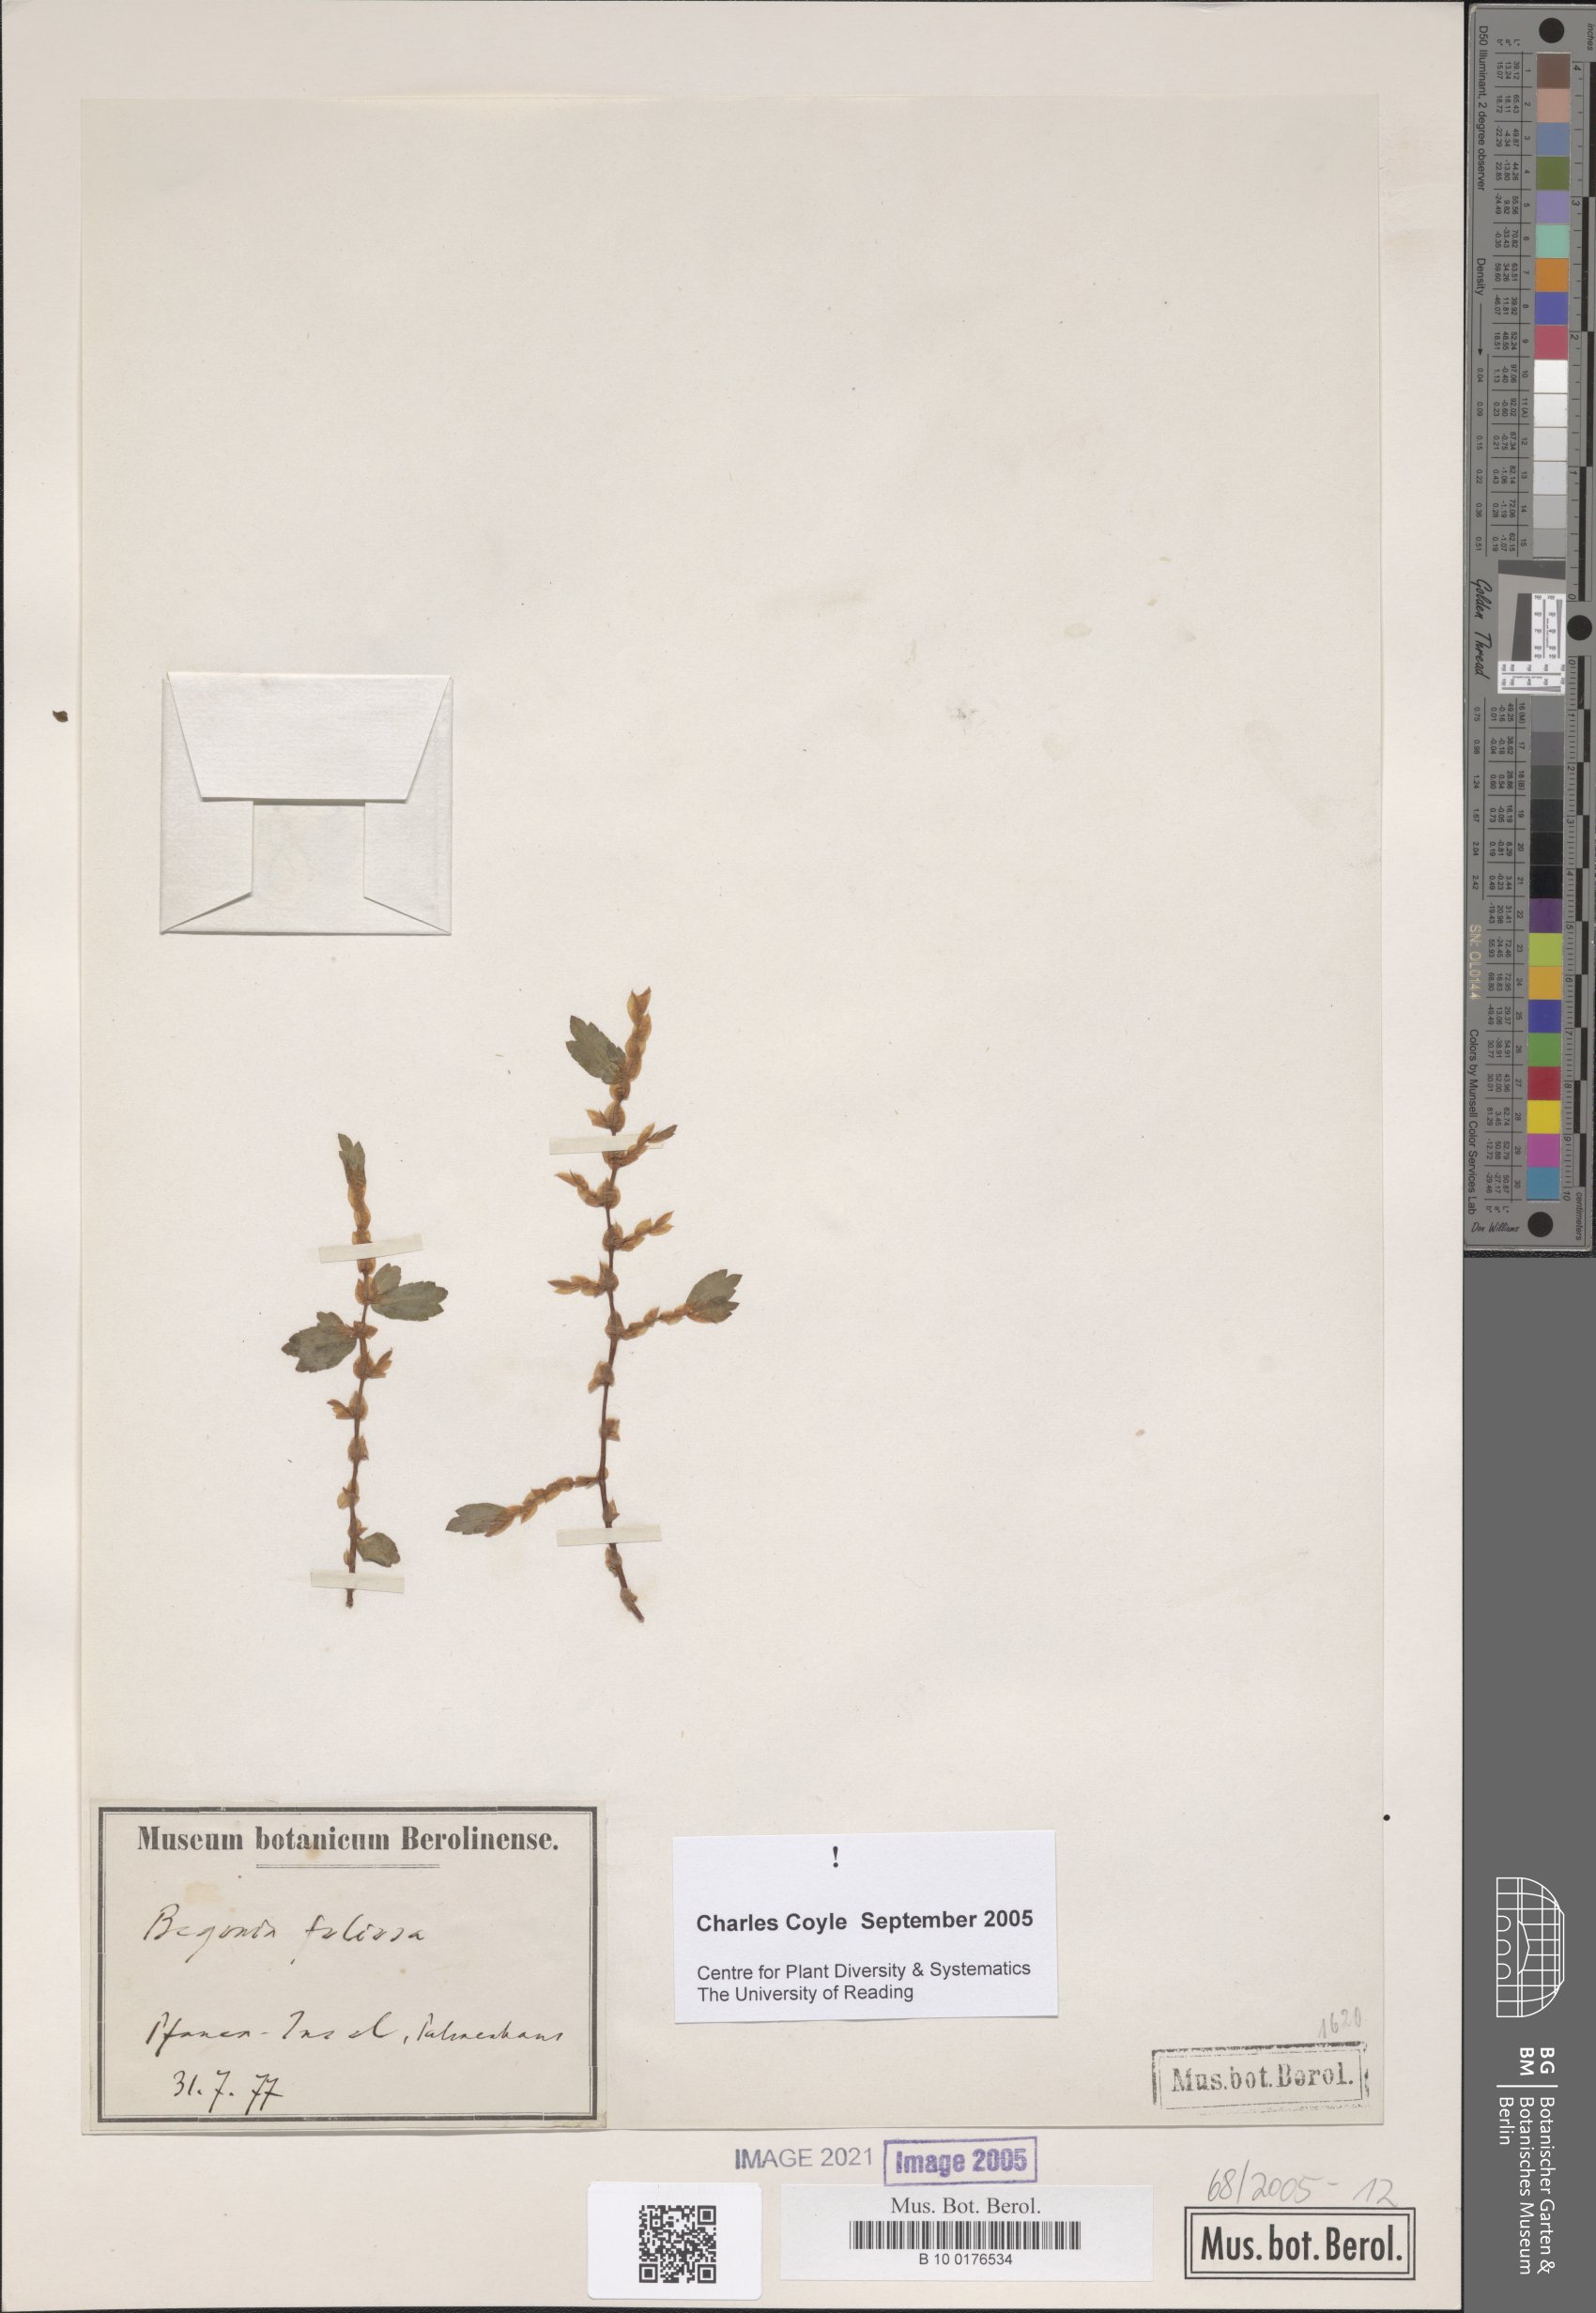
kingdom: Plantae
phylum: Tracheophyta
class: Magnoliopsida
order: Cucurbitales
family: Begoniaceae
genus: Begonia
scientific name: Begonia foliosa
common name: Fern begonia
